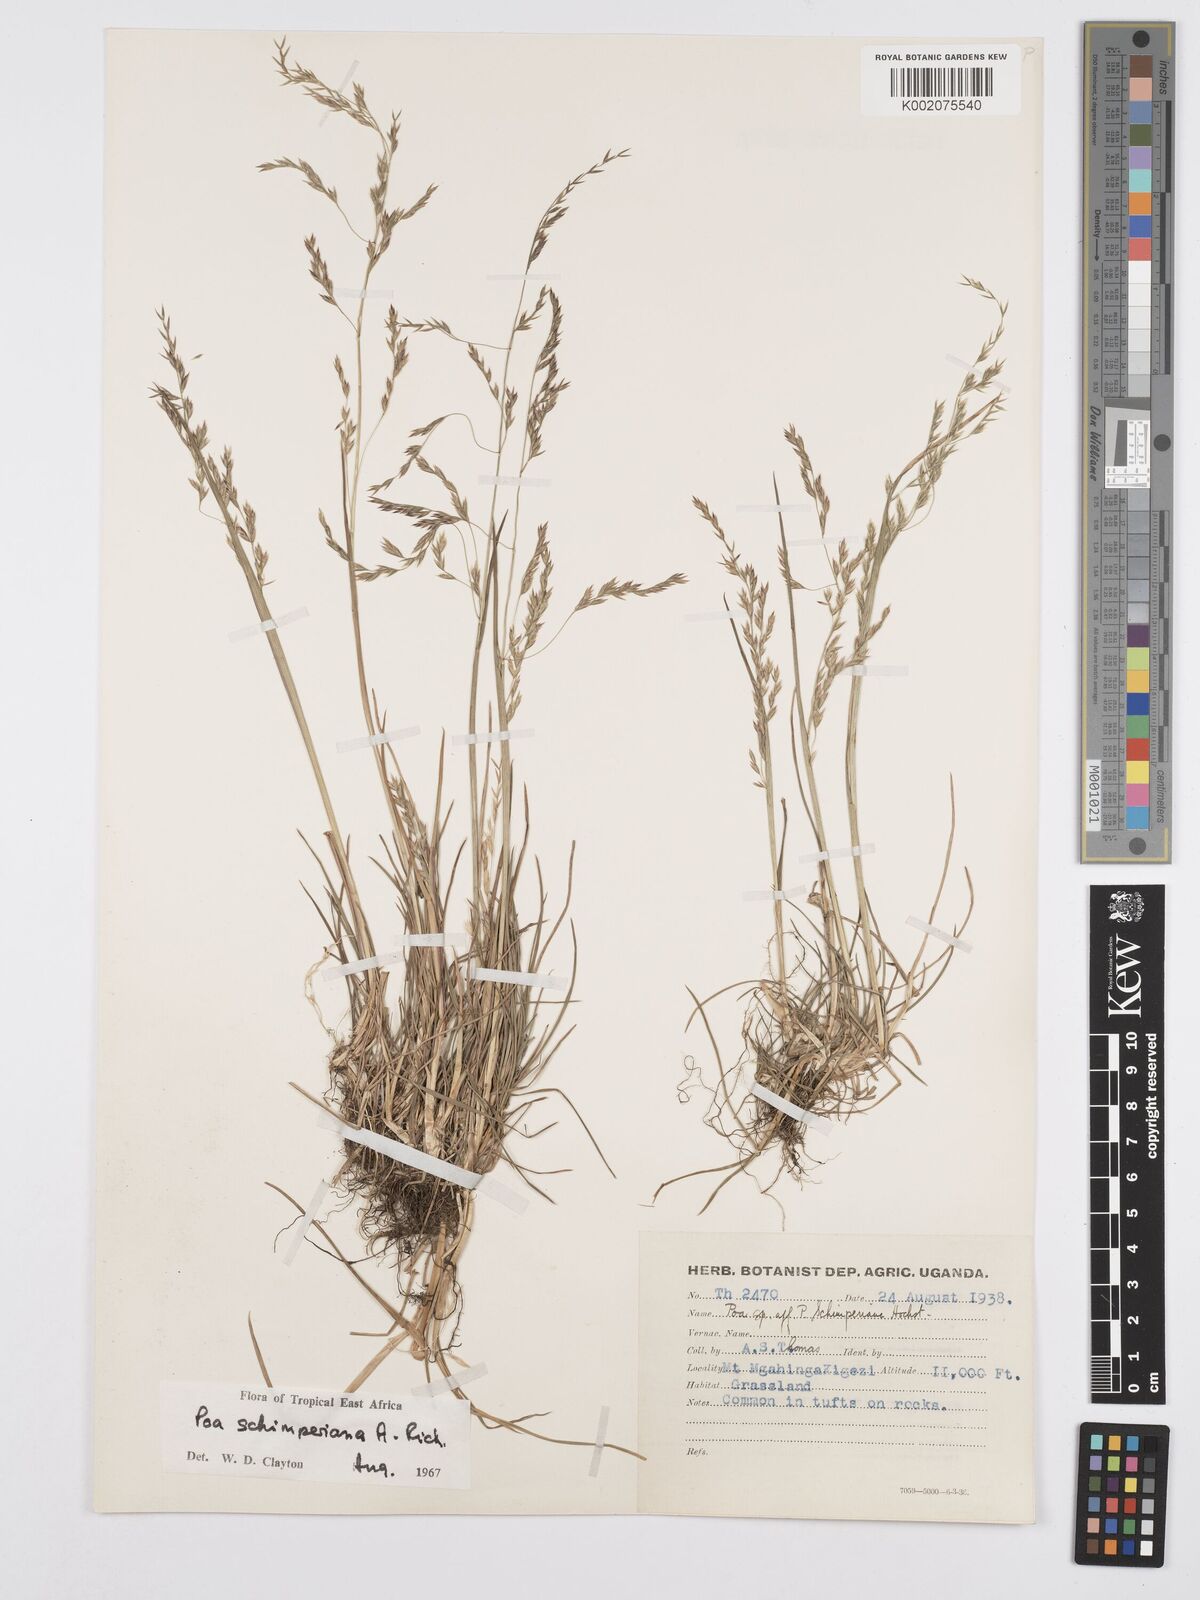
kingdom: Plantae
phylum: Tracheophyta
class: Liliopsida
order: Poales
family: Poaceae
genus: Poa
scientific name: Poa schimperiana
